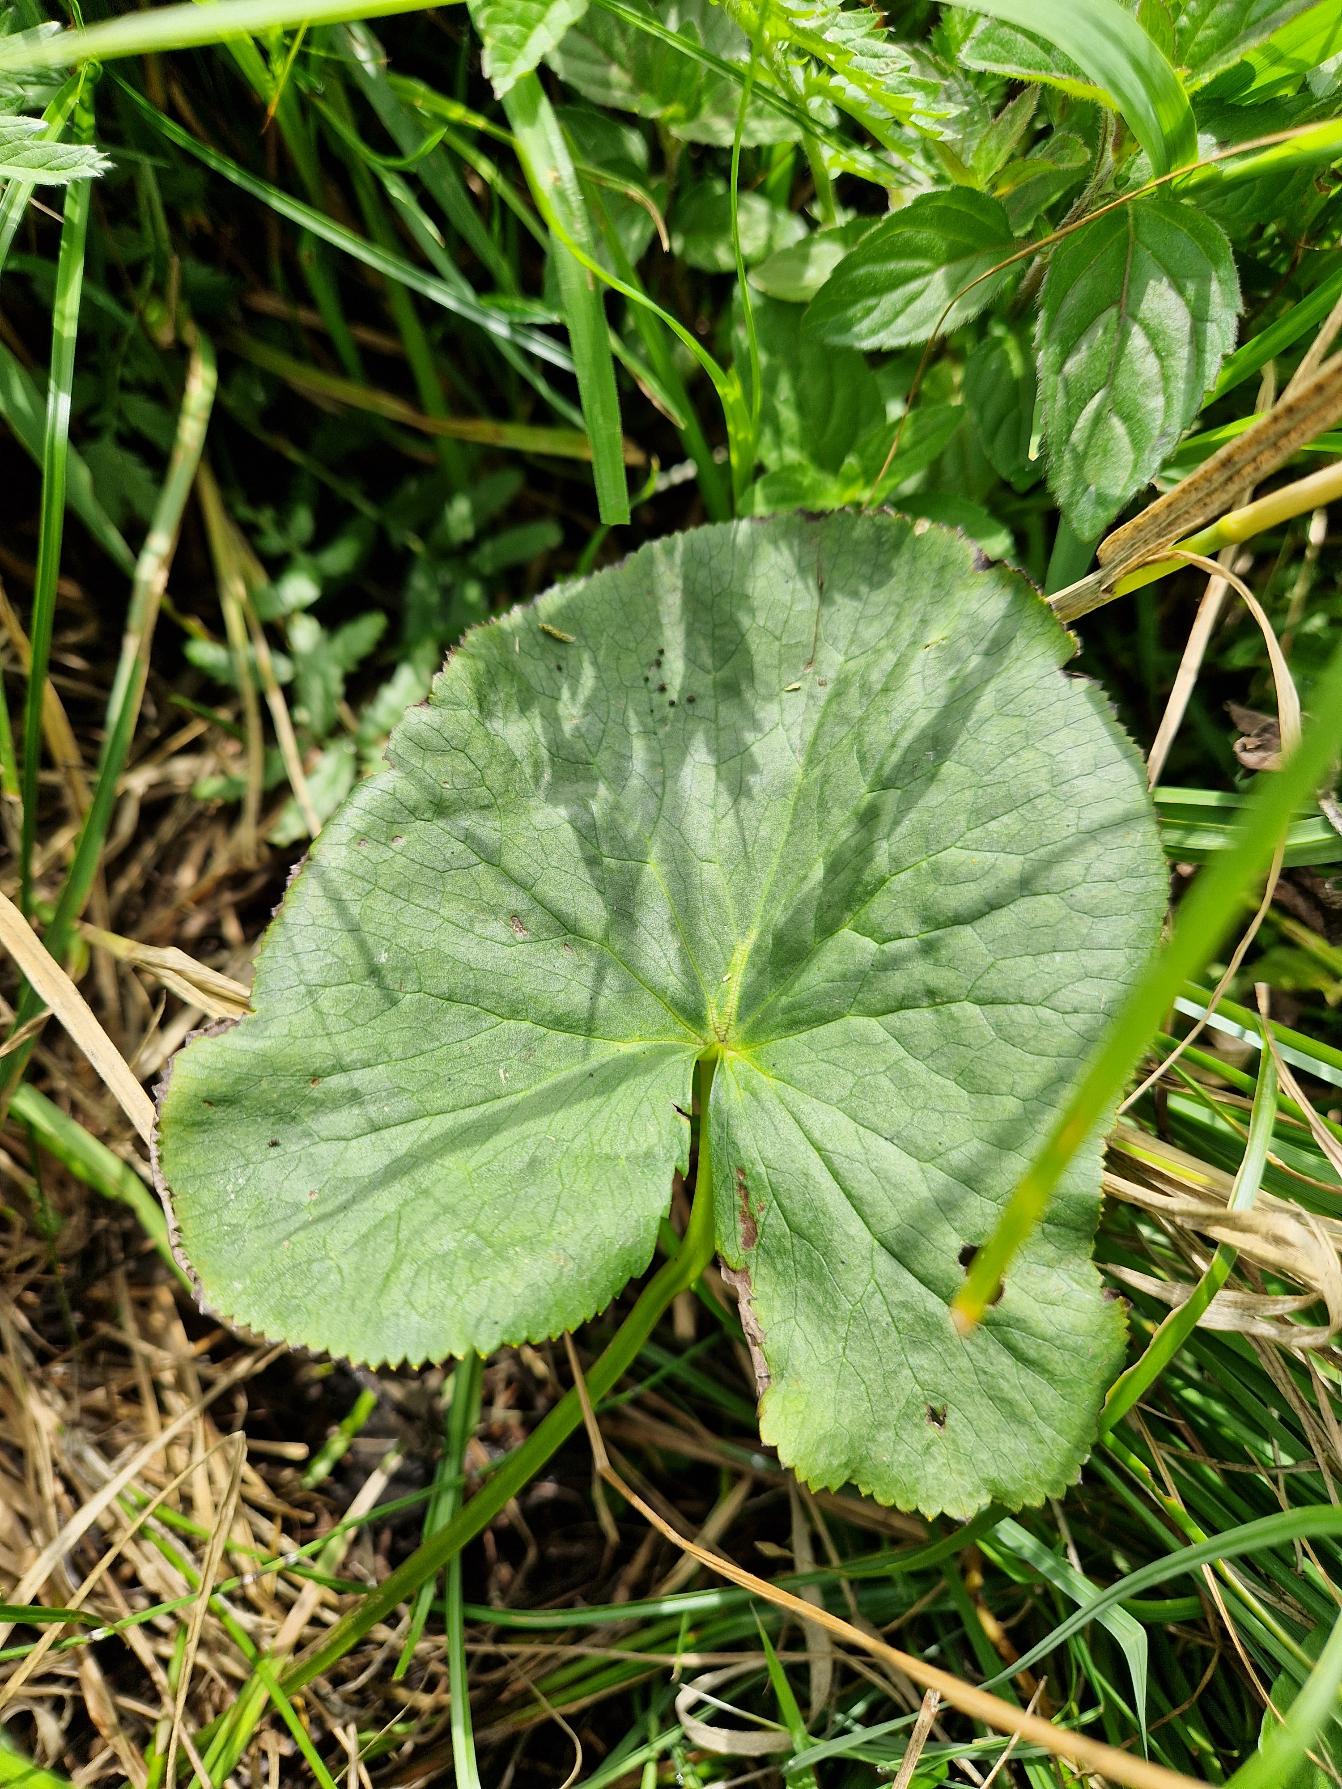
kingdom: Plantae
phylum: Tracheophyta
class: Magnoliopsida
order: Ranunculales
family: Ranunculaceae
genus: Caltha
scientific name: Caltha palustris
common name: Eng-kabbeleje
